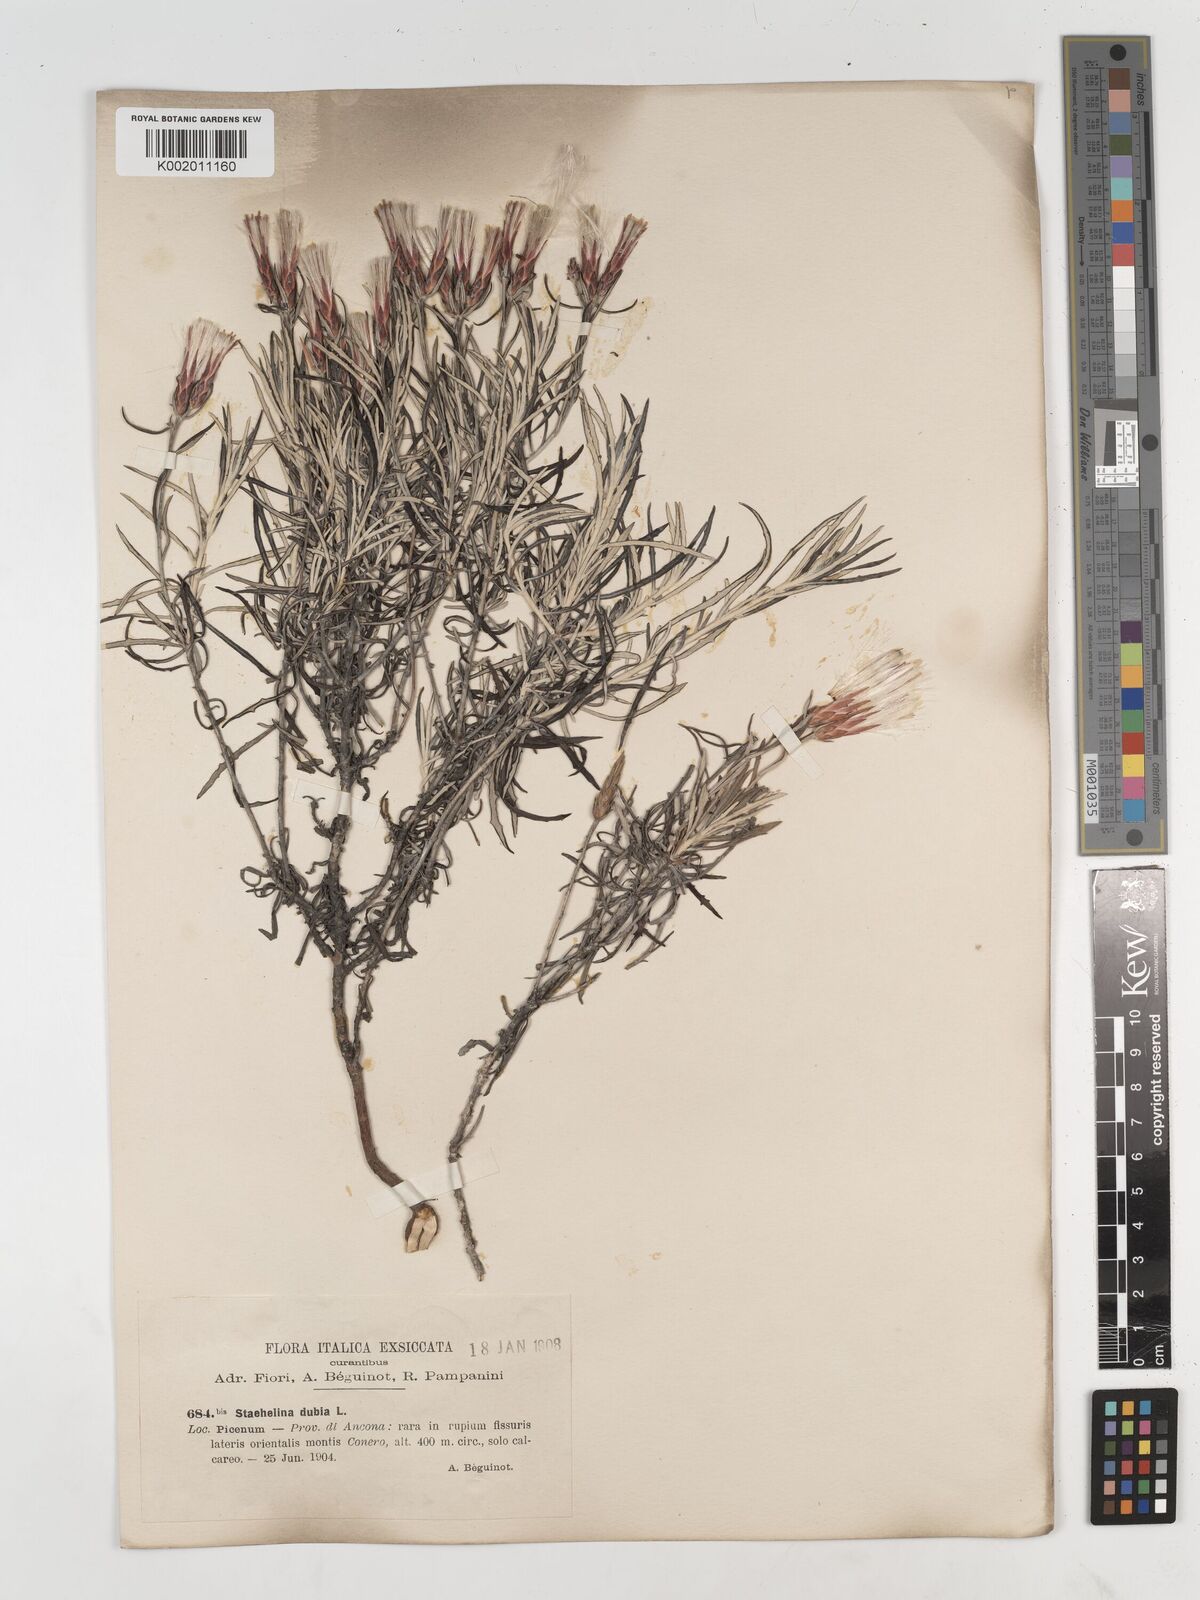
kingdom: Plantae
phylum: Tracheophyta
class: Magnoliopsida
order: Asterales
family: Asteraceae
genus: Staehelina
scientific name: Staehelina dubia
